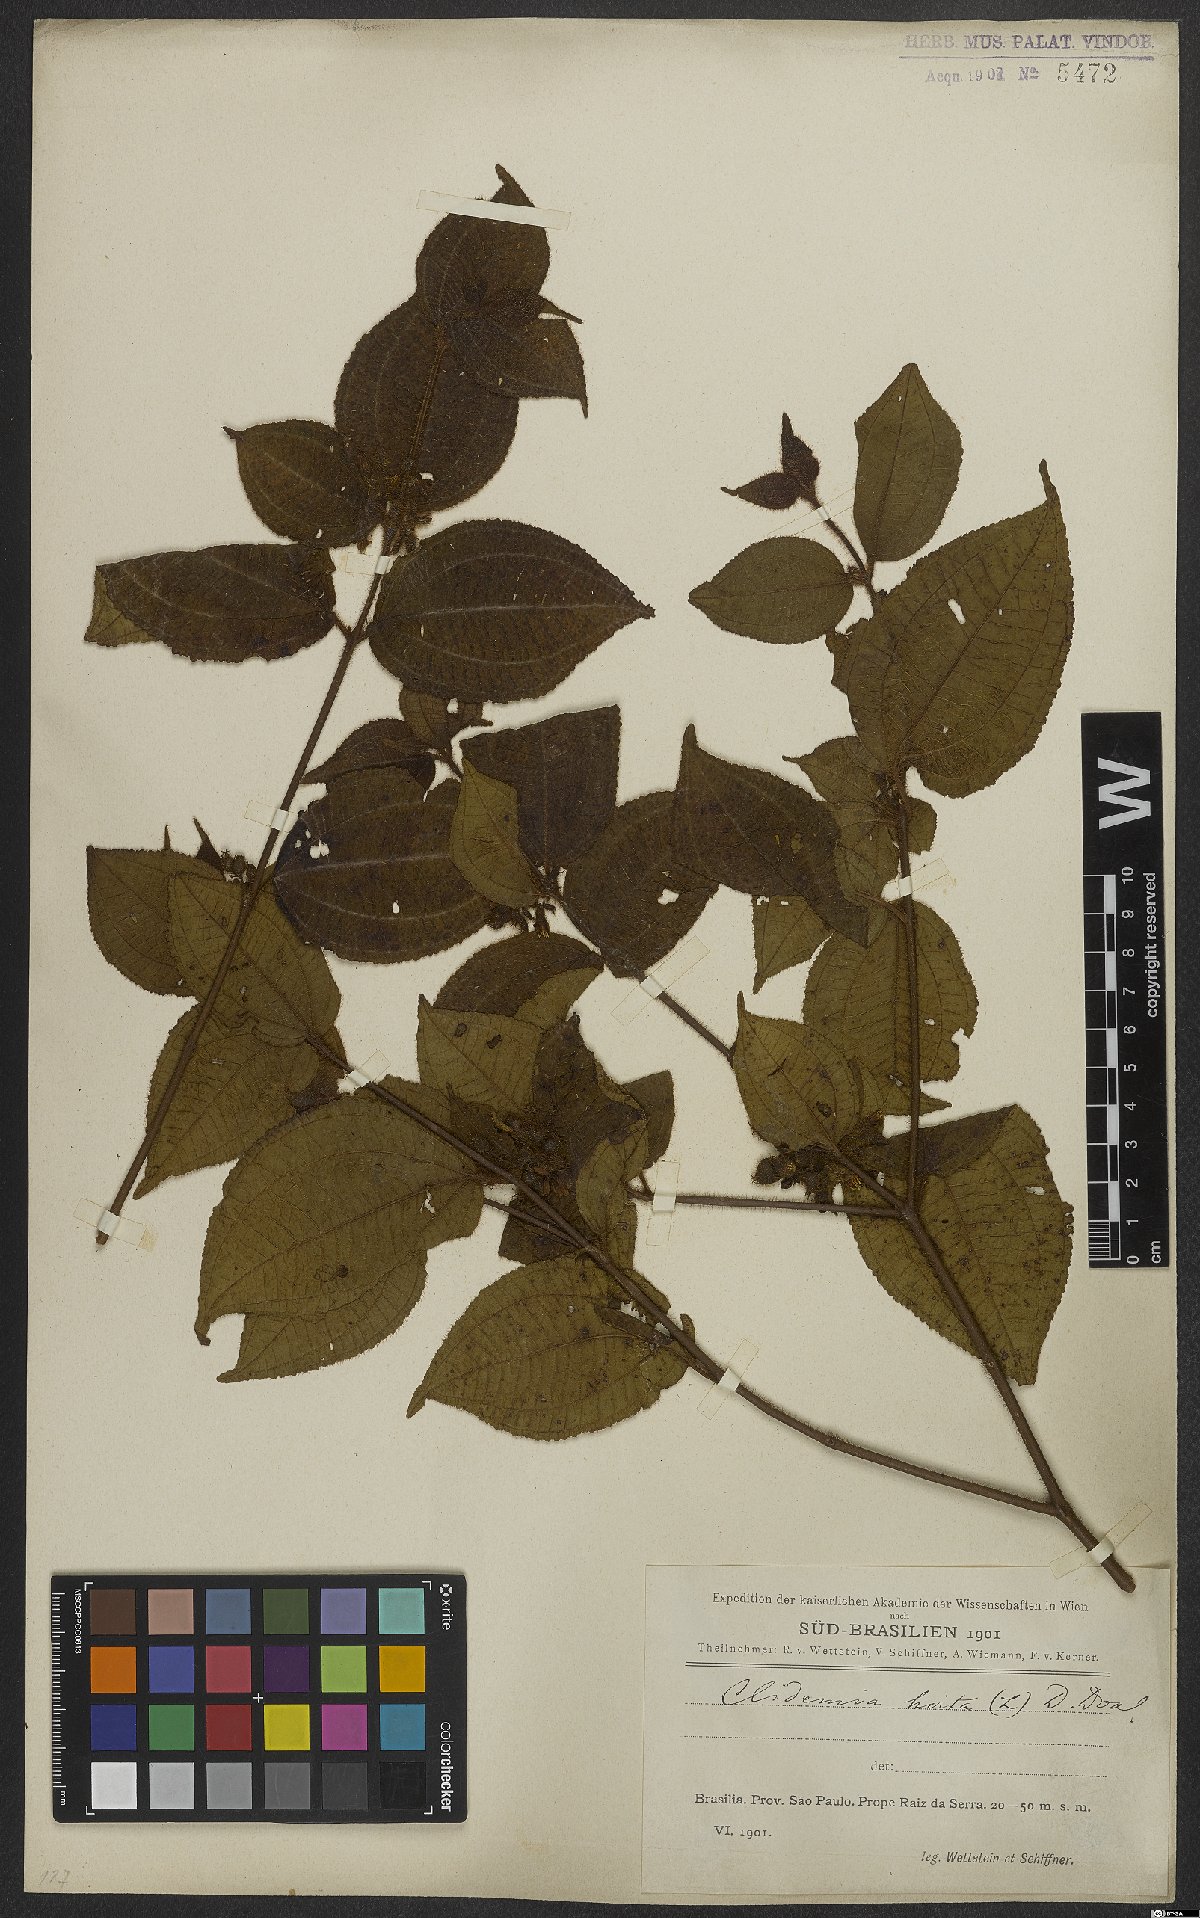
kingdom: Plantae
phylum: Tracheophyta
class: Magnoliopsida
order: Myrtales
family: Melastomataceae
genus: Miconia
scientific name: Miconia crenata
